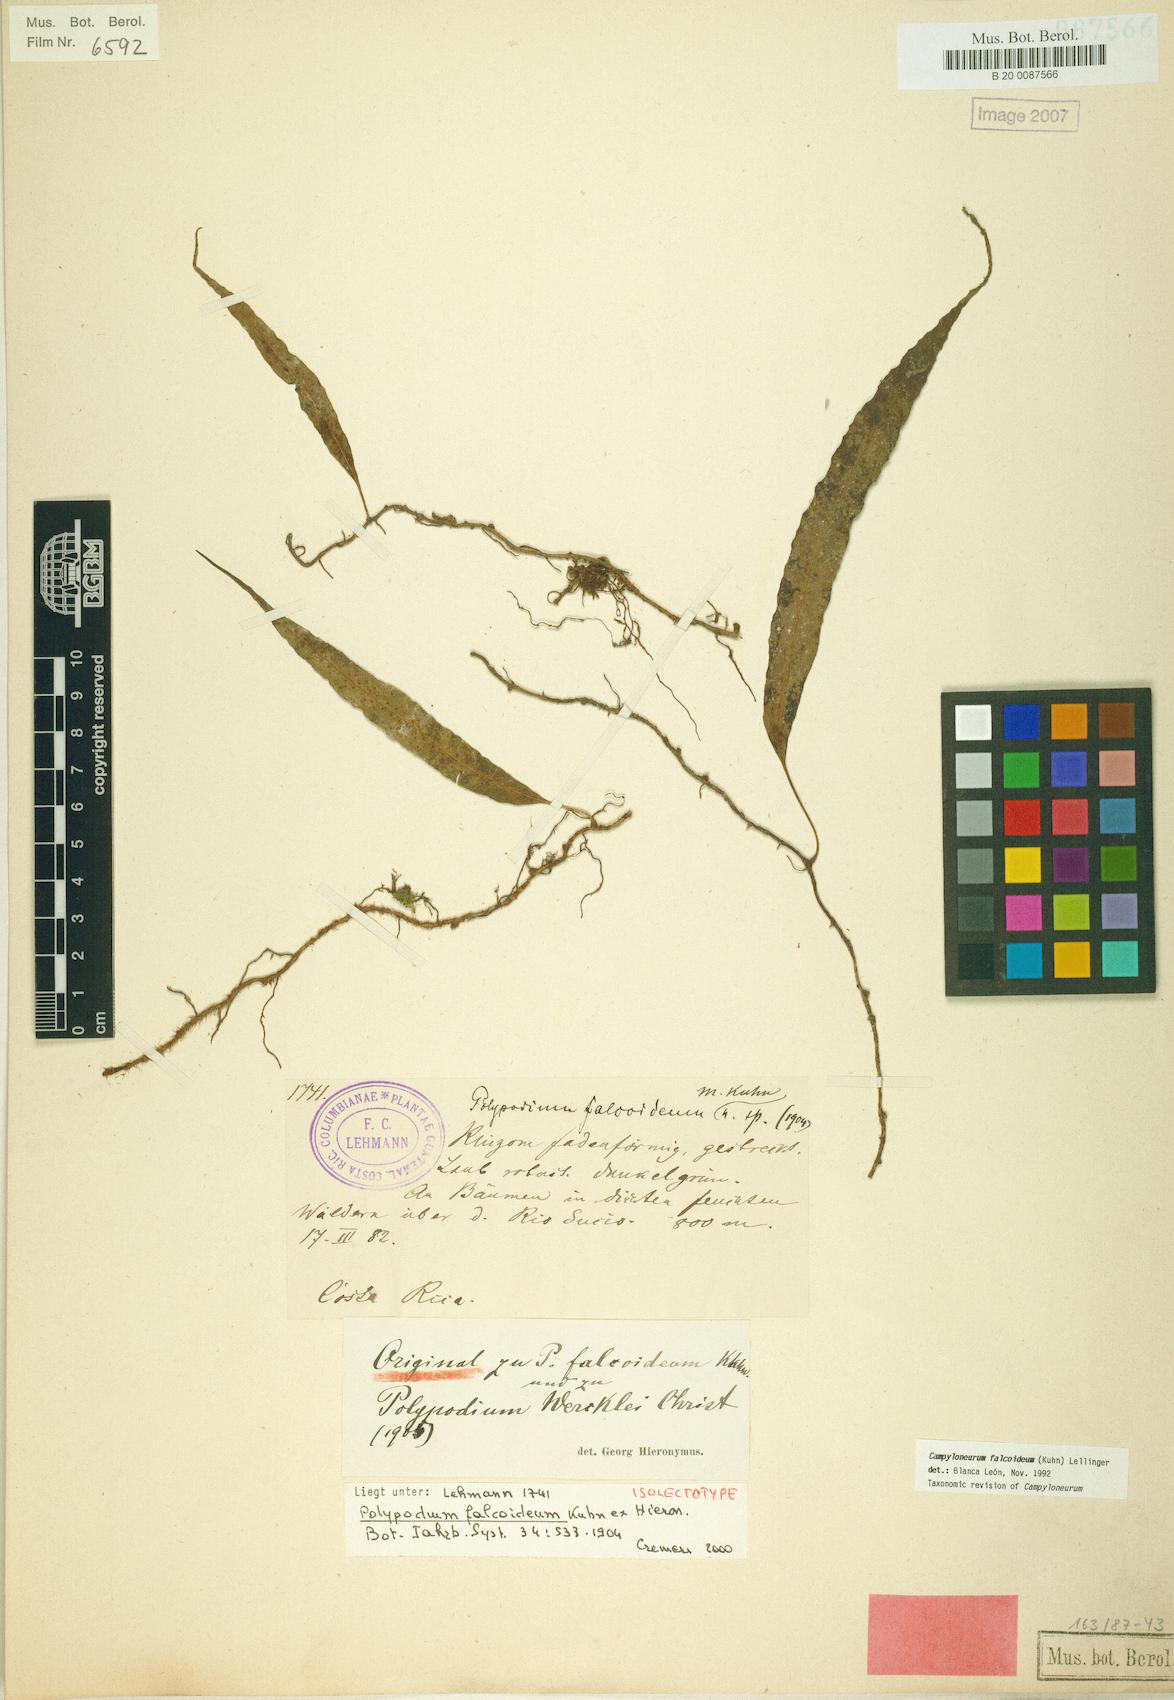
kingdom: Plantae
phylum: Tracheophyta
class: Polypodiopsida
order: Polypodiales
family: Polypodiaceae
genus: Campyloneurum
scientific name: Campyloneurum falcoideum
